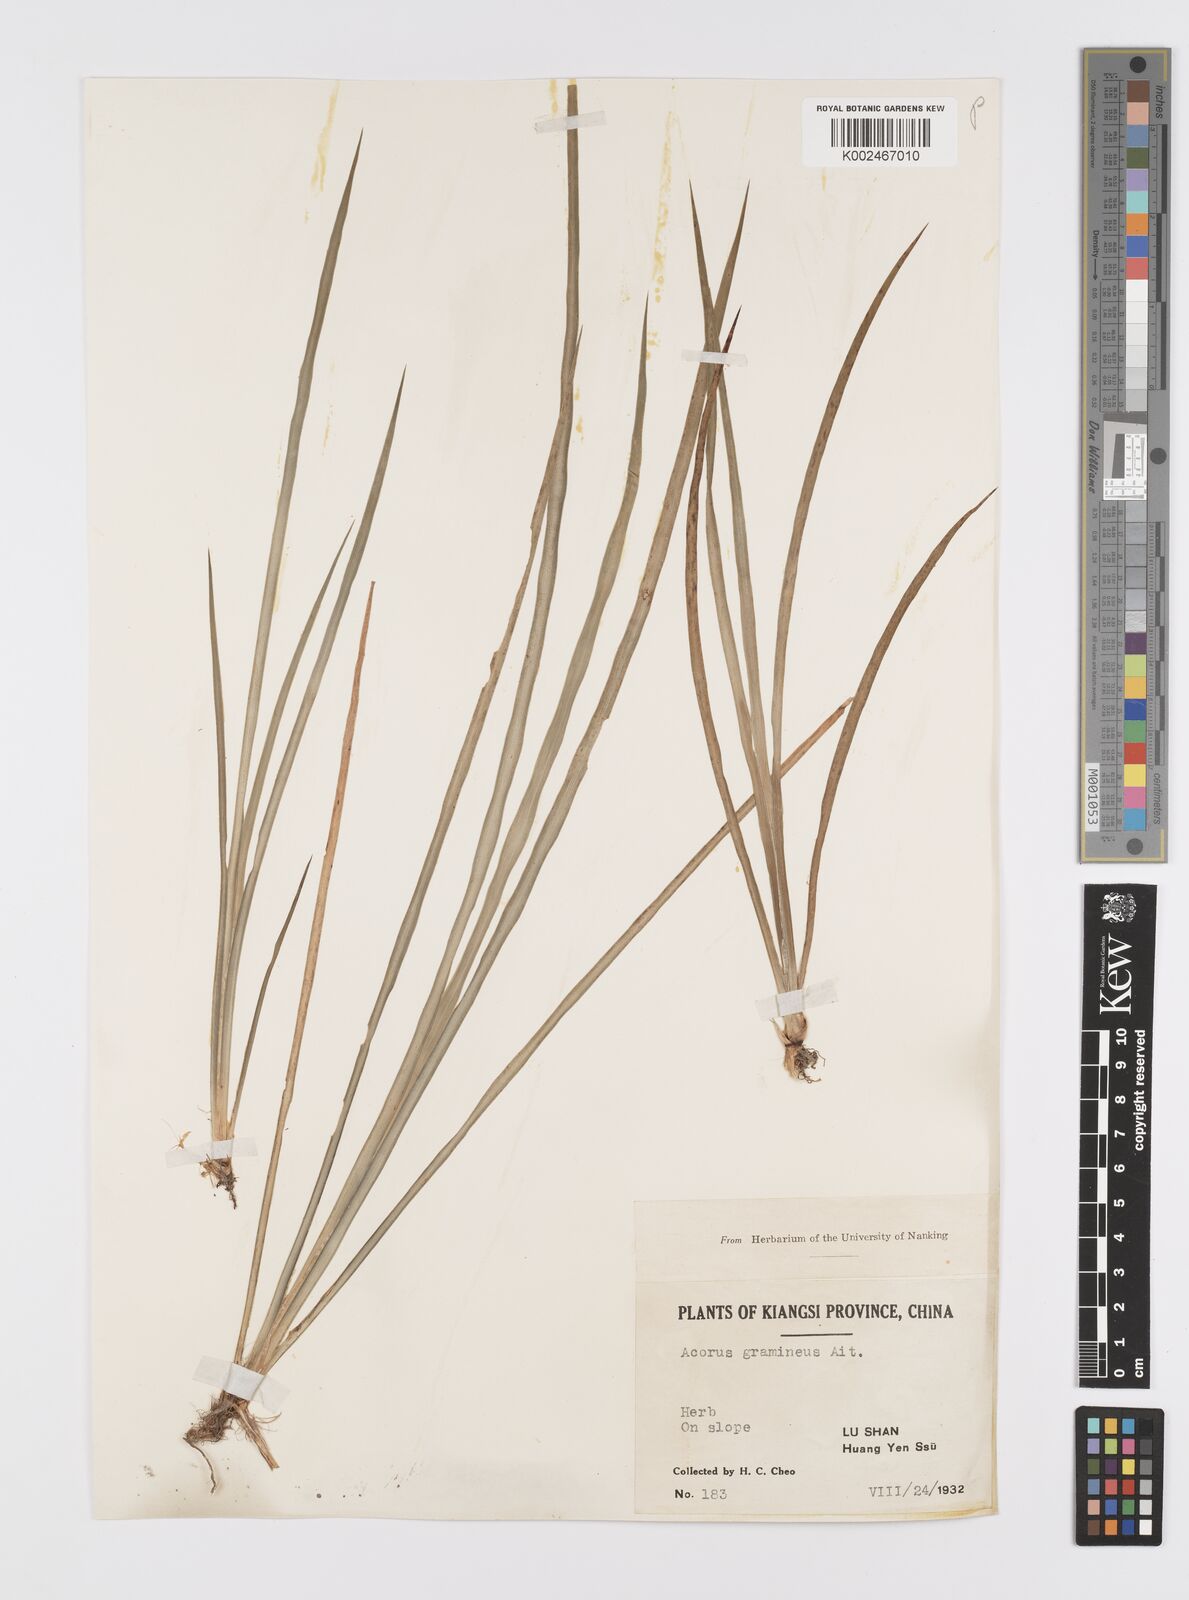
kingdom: Plantae
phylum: Tracheophyta
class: Liliopsida
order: Acorales
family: Acoraceae
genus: Acorus
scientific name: Acorus gramineus
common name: Slender sweet-flag
